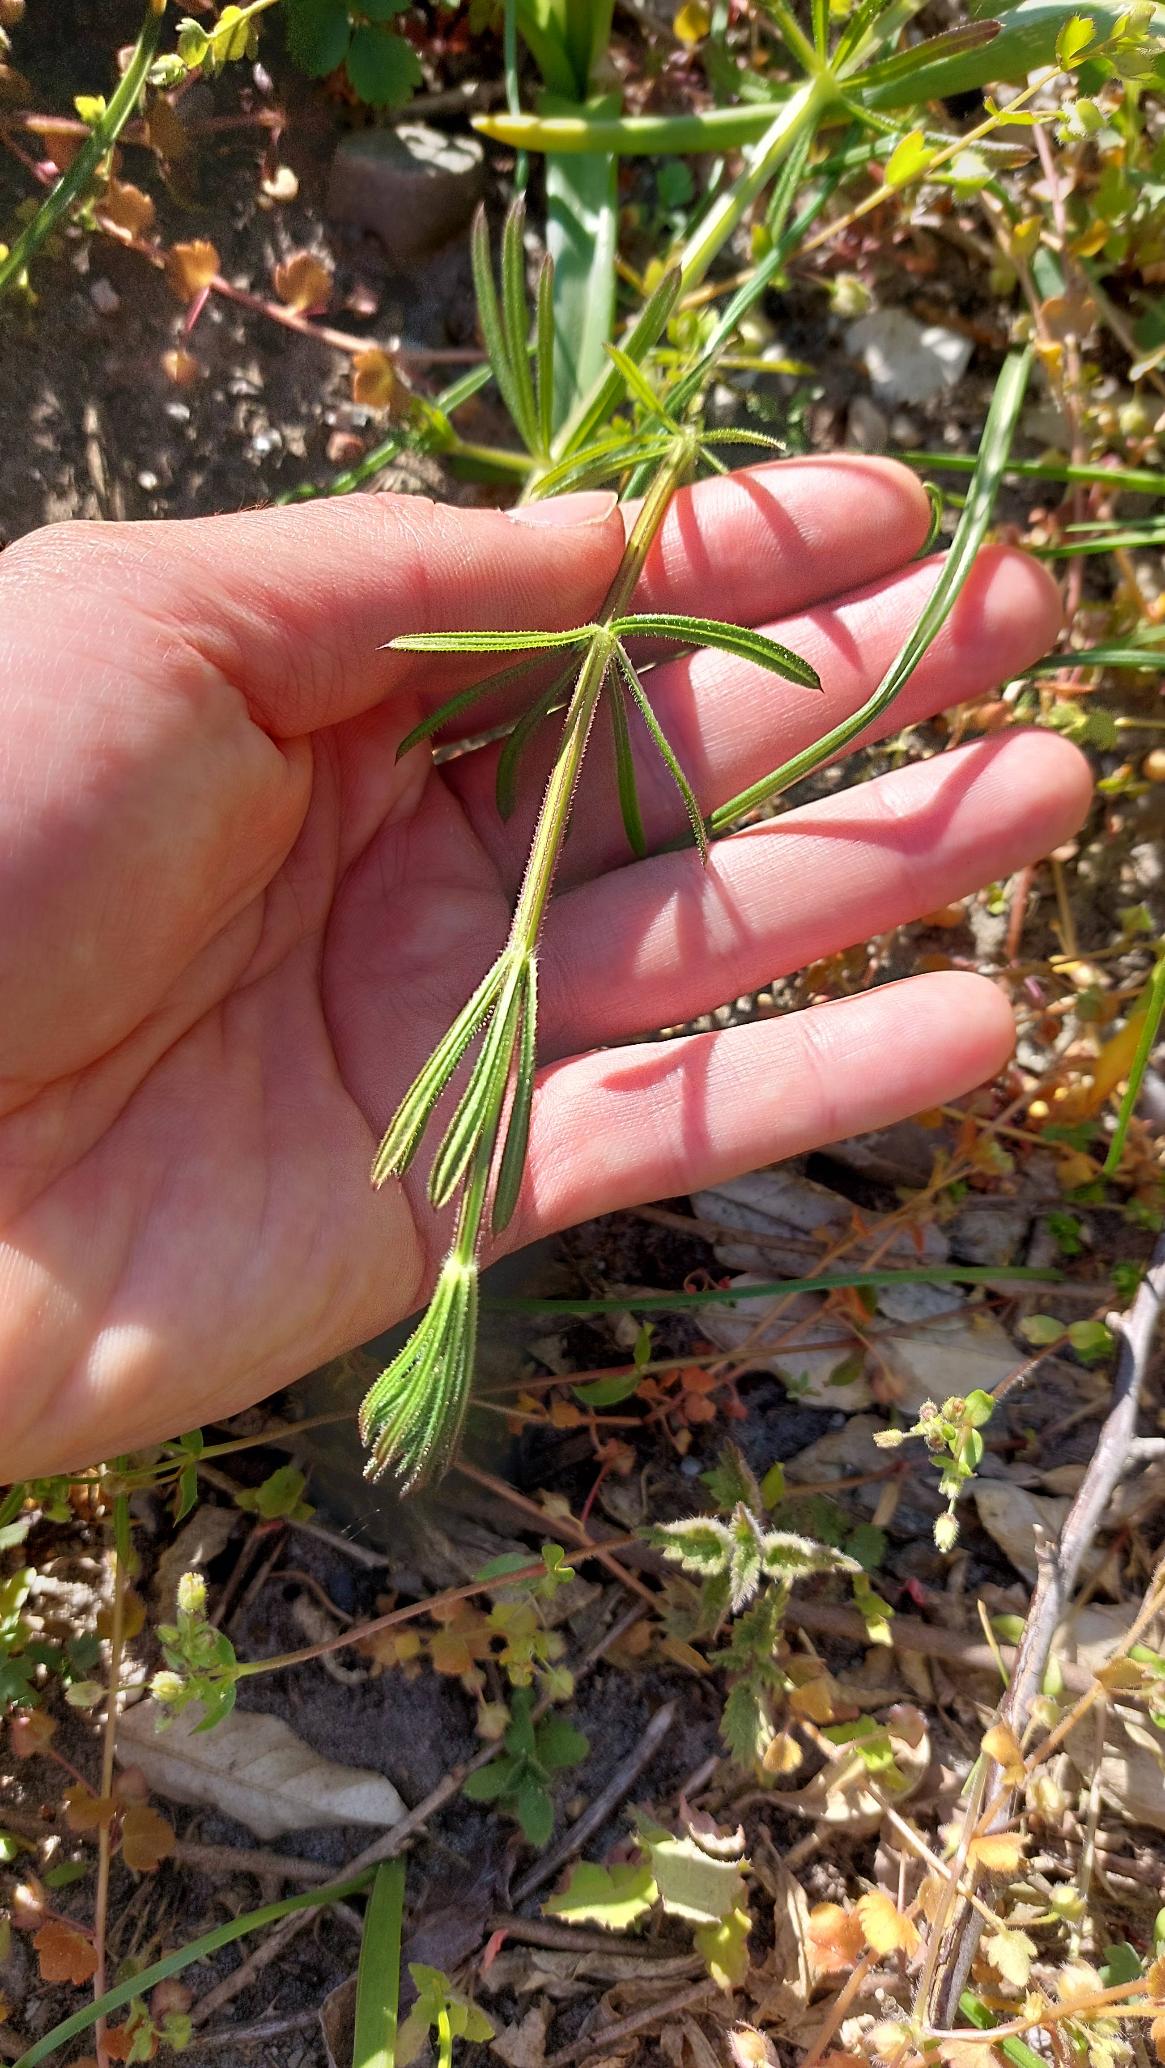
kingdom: Plantae
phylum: Tracheophyta
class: Magnoliopsida
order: Gentianales
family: Rubiaceae
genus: Galium
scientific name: Galium aparine
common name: Burre-snerre
